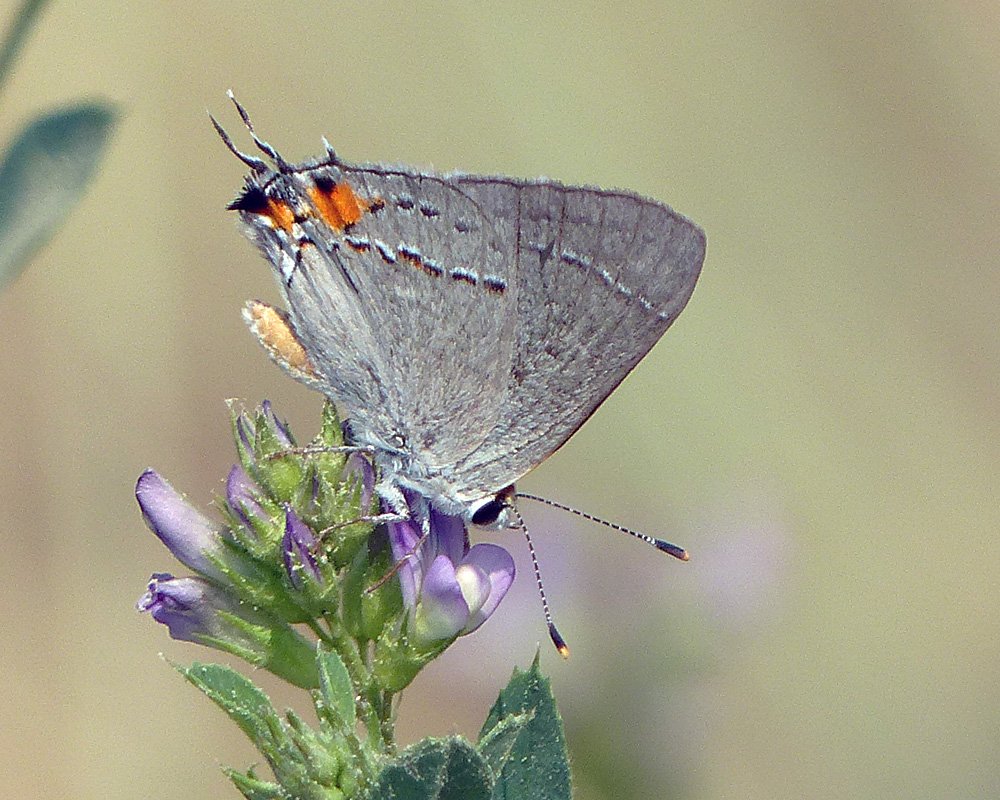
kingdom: Animalia
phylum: Arthropoda
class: Insecta
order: Lepidoptera
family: Lycaenidae
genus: Strymon
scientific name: Strymon melinus
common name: Gray Hairstreak
